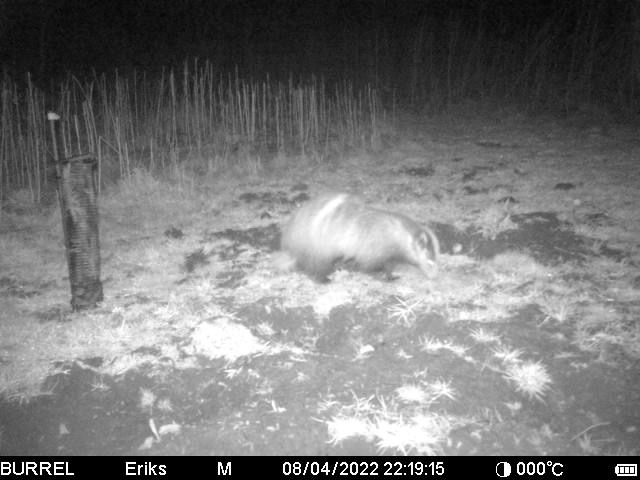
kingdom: Animalia
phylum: Chordata
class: Mammalia
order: Carnivora
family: Mustelidae
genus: Meles
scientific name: Meles meles
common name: Grævling
